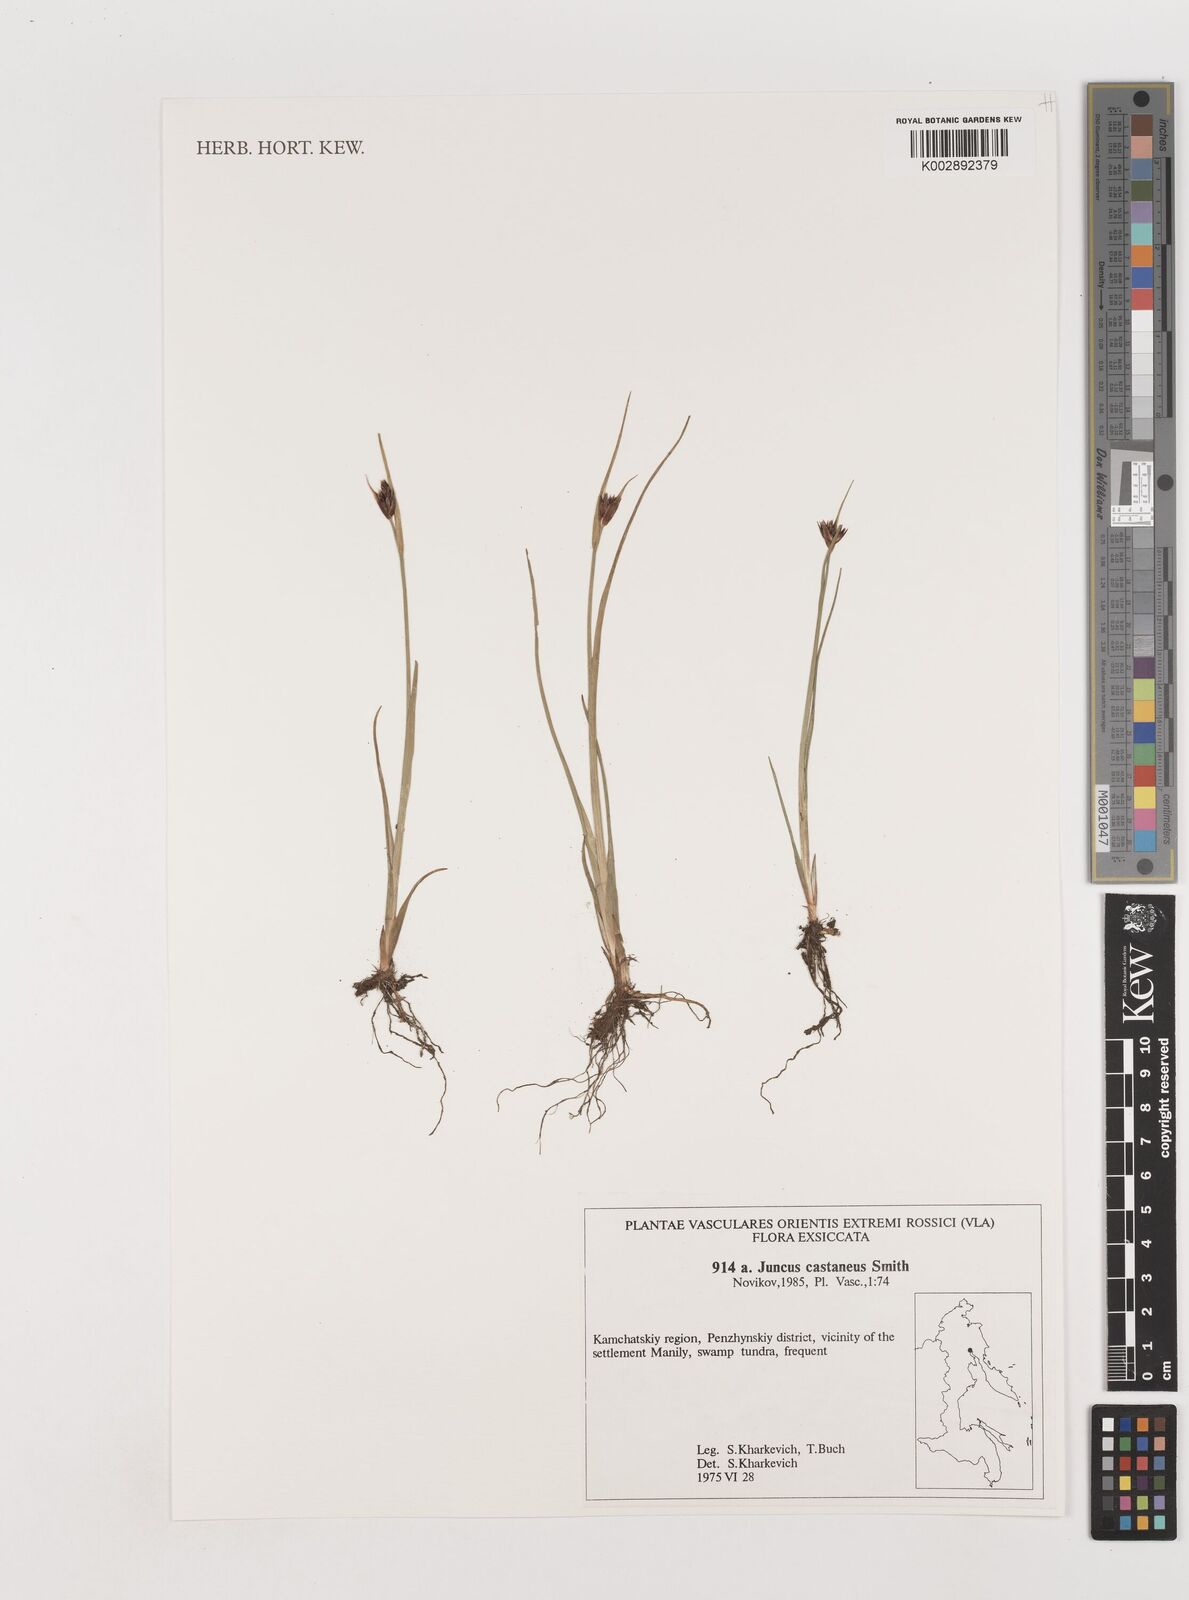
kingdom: Plantae
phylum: Tracheophyta
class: Liliopsida
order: Poales
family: Juncaceae
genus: Juncus
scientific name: Juncus castaneus
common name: Chestnut rush
